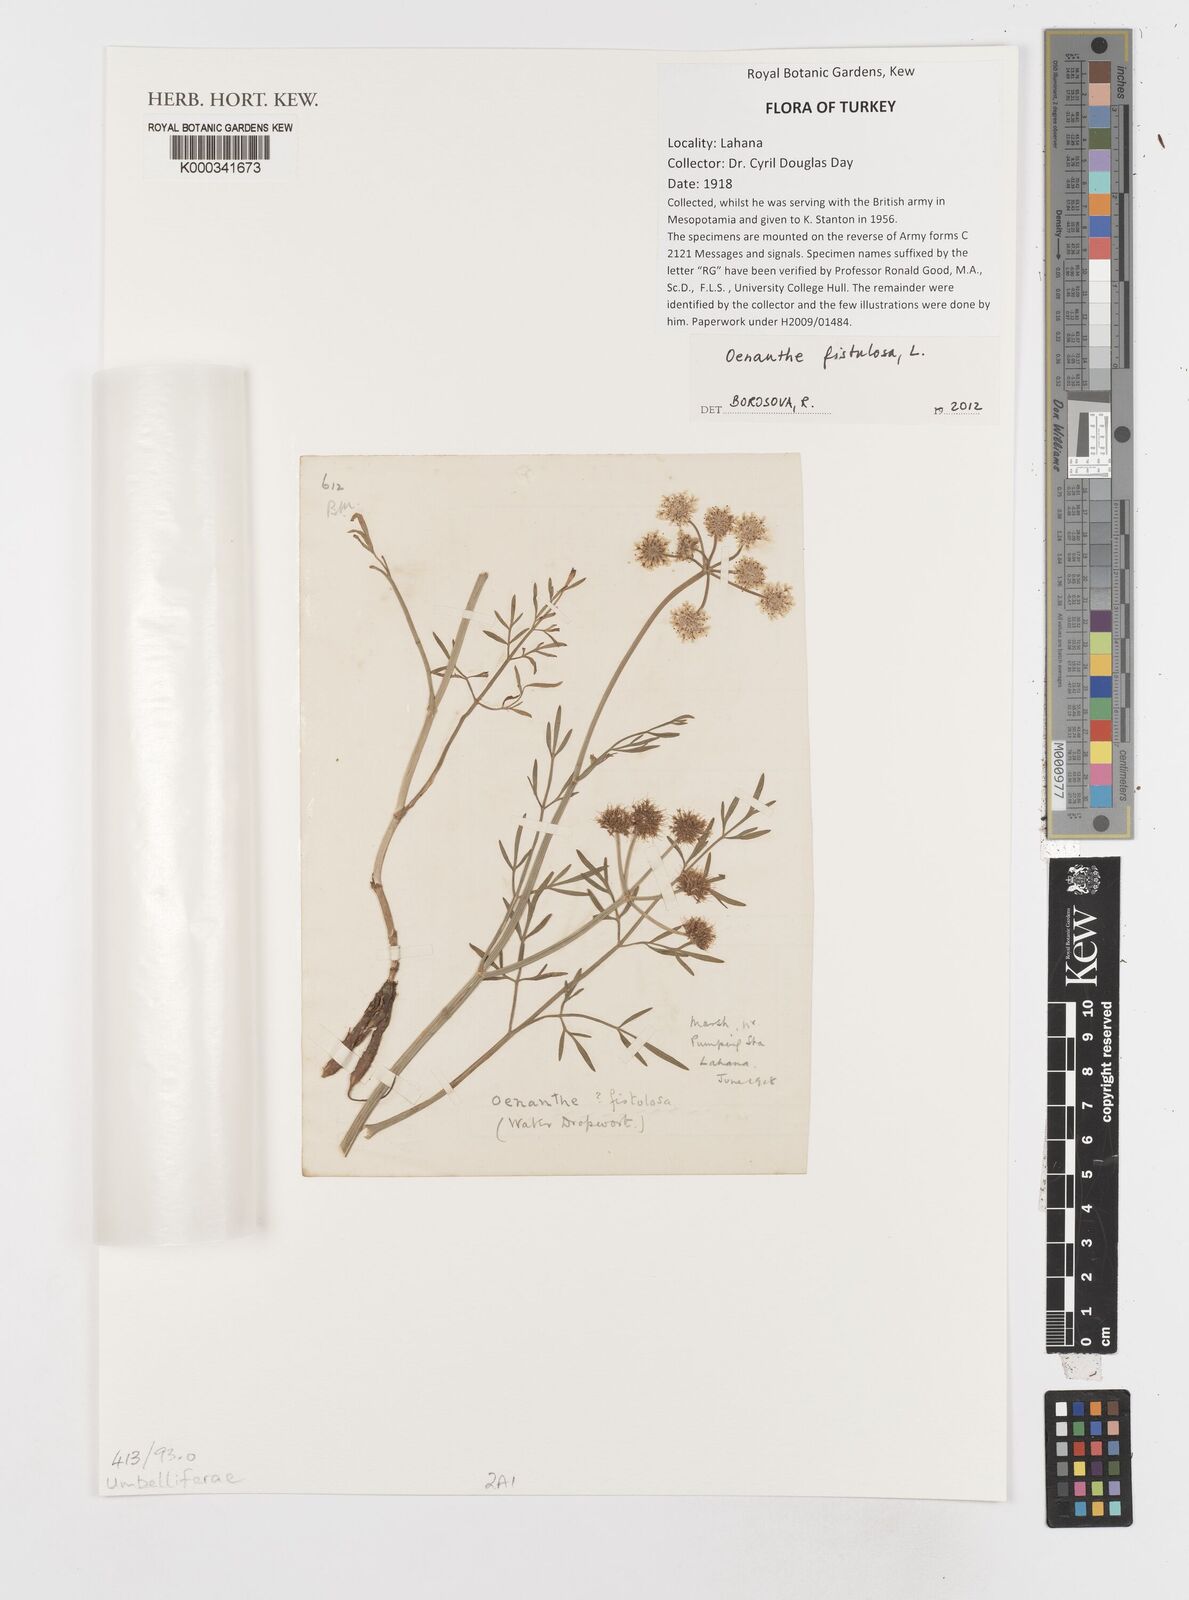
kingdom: Plantae
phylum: Tracheophyta
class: Magnoliopsida
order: Apiales
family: Apiaceae
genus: Oenanthe
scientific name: Oenanthe fistulosa
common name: Tubular water-dropwort
